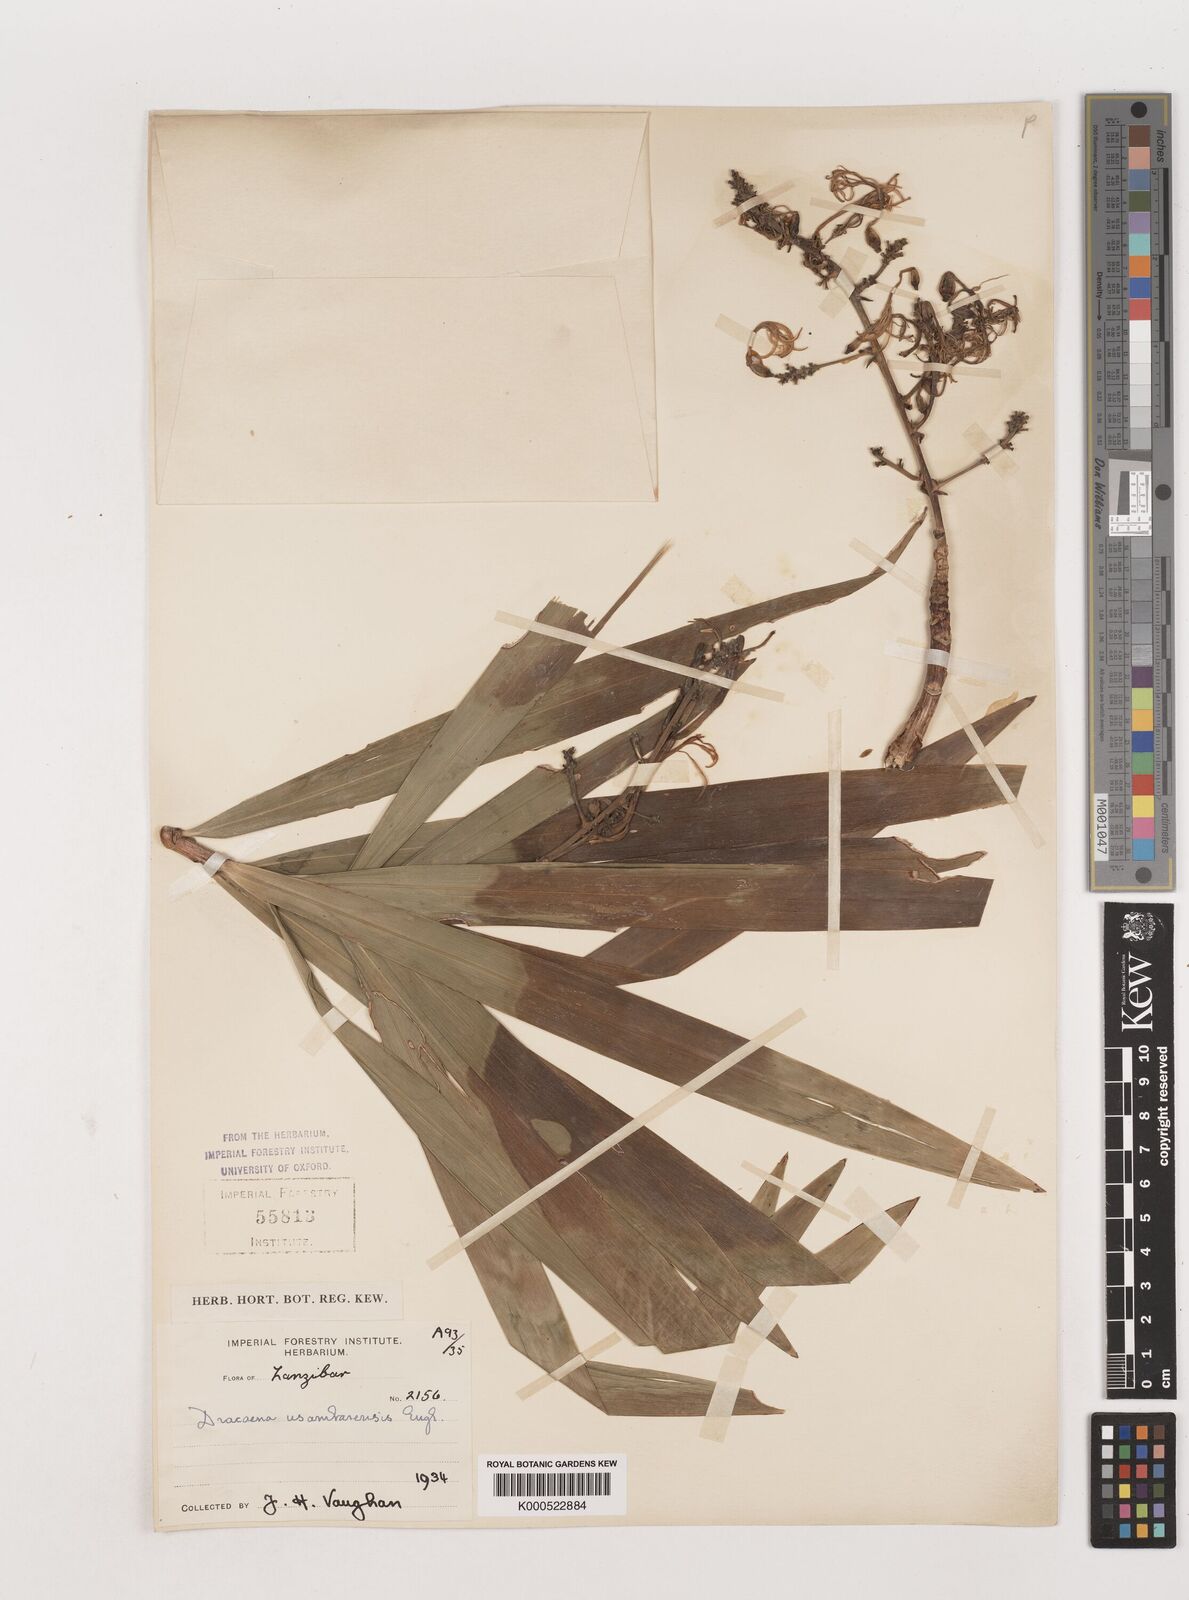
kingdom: Plantae
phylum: Tracheophyta
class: Liliopsida
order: Asparagales
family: Asparagaceae
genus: Dracaena
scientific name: Dracaena usambarensis
